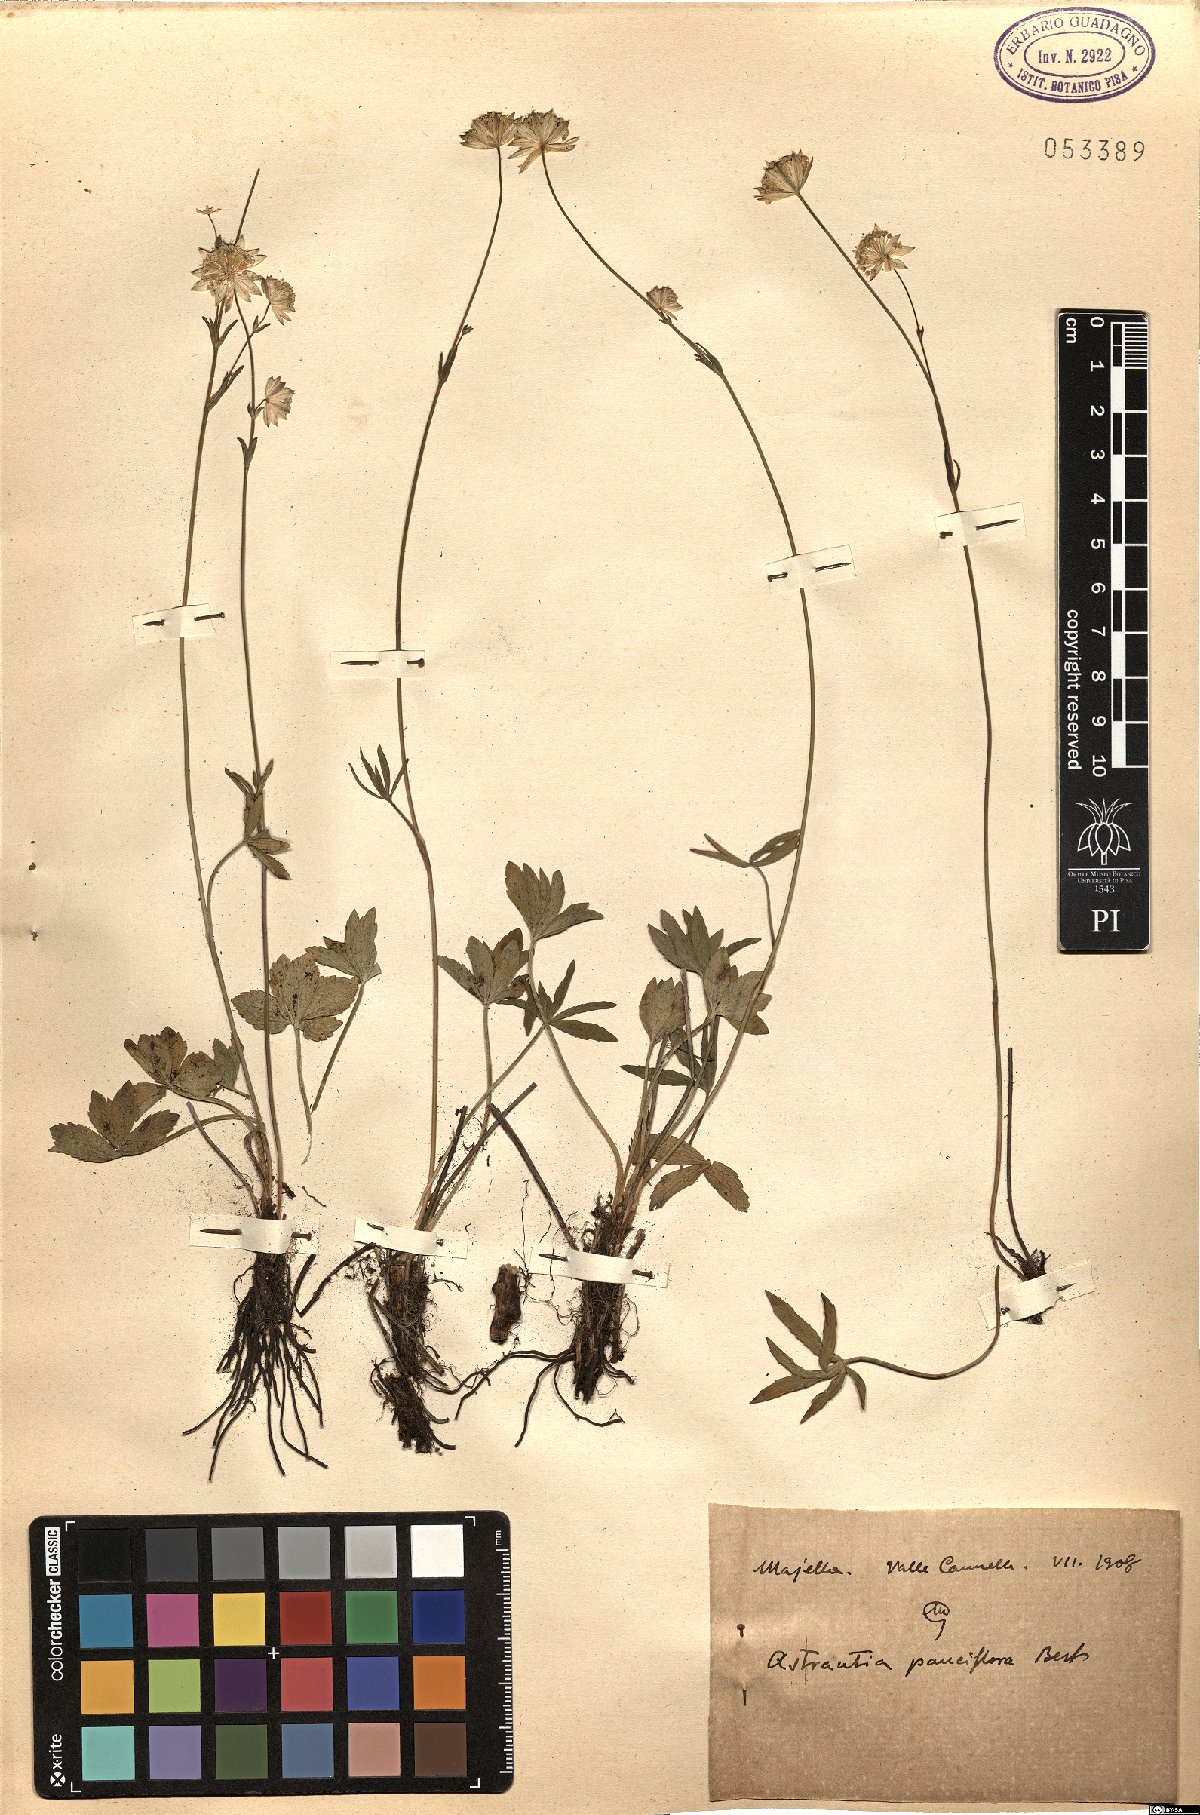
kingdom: Plantae
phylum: Tracheophyta
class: Magnoliopsida
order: Apiales
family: Apiaceae
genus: Astrantia
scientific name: Astrantia pauciflora
